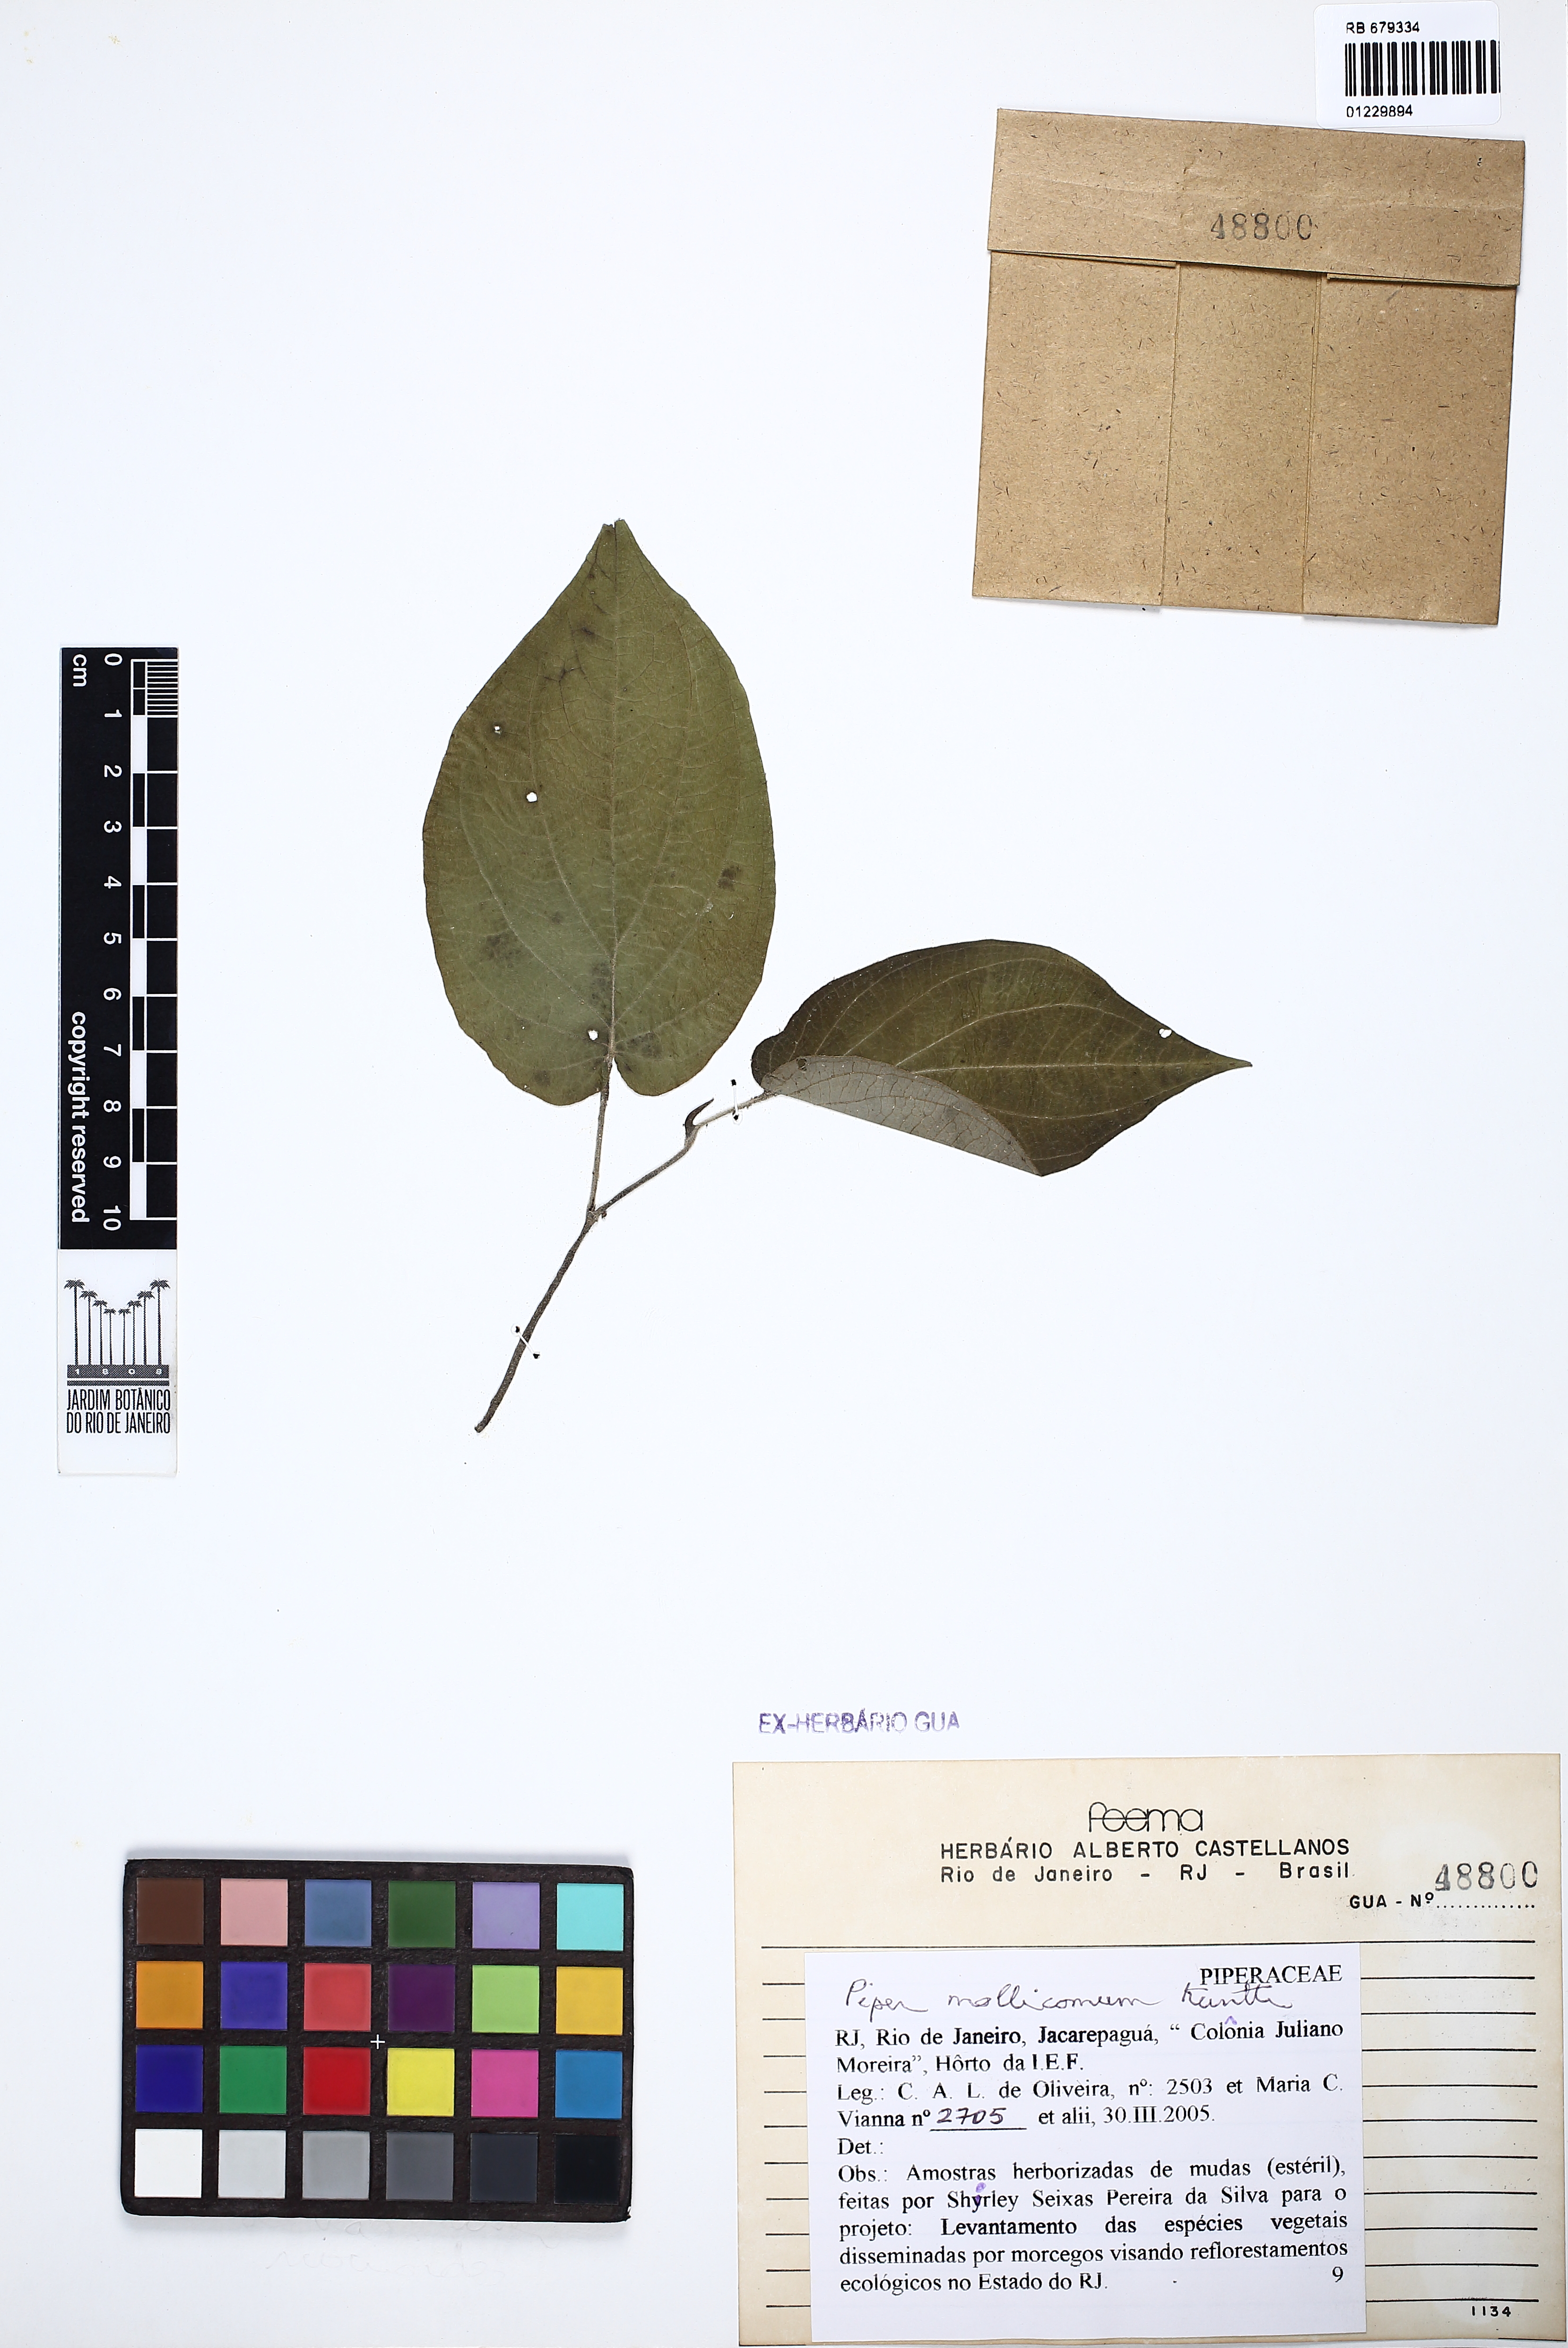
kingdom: Plantae
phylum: Tracheophyta
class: Magnoliopsida
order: Piperales
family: Piperaceae
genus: Piper
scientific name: Piper mollicomum
